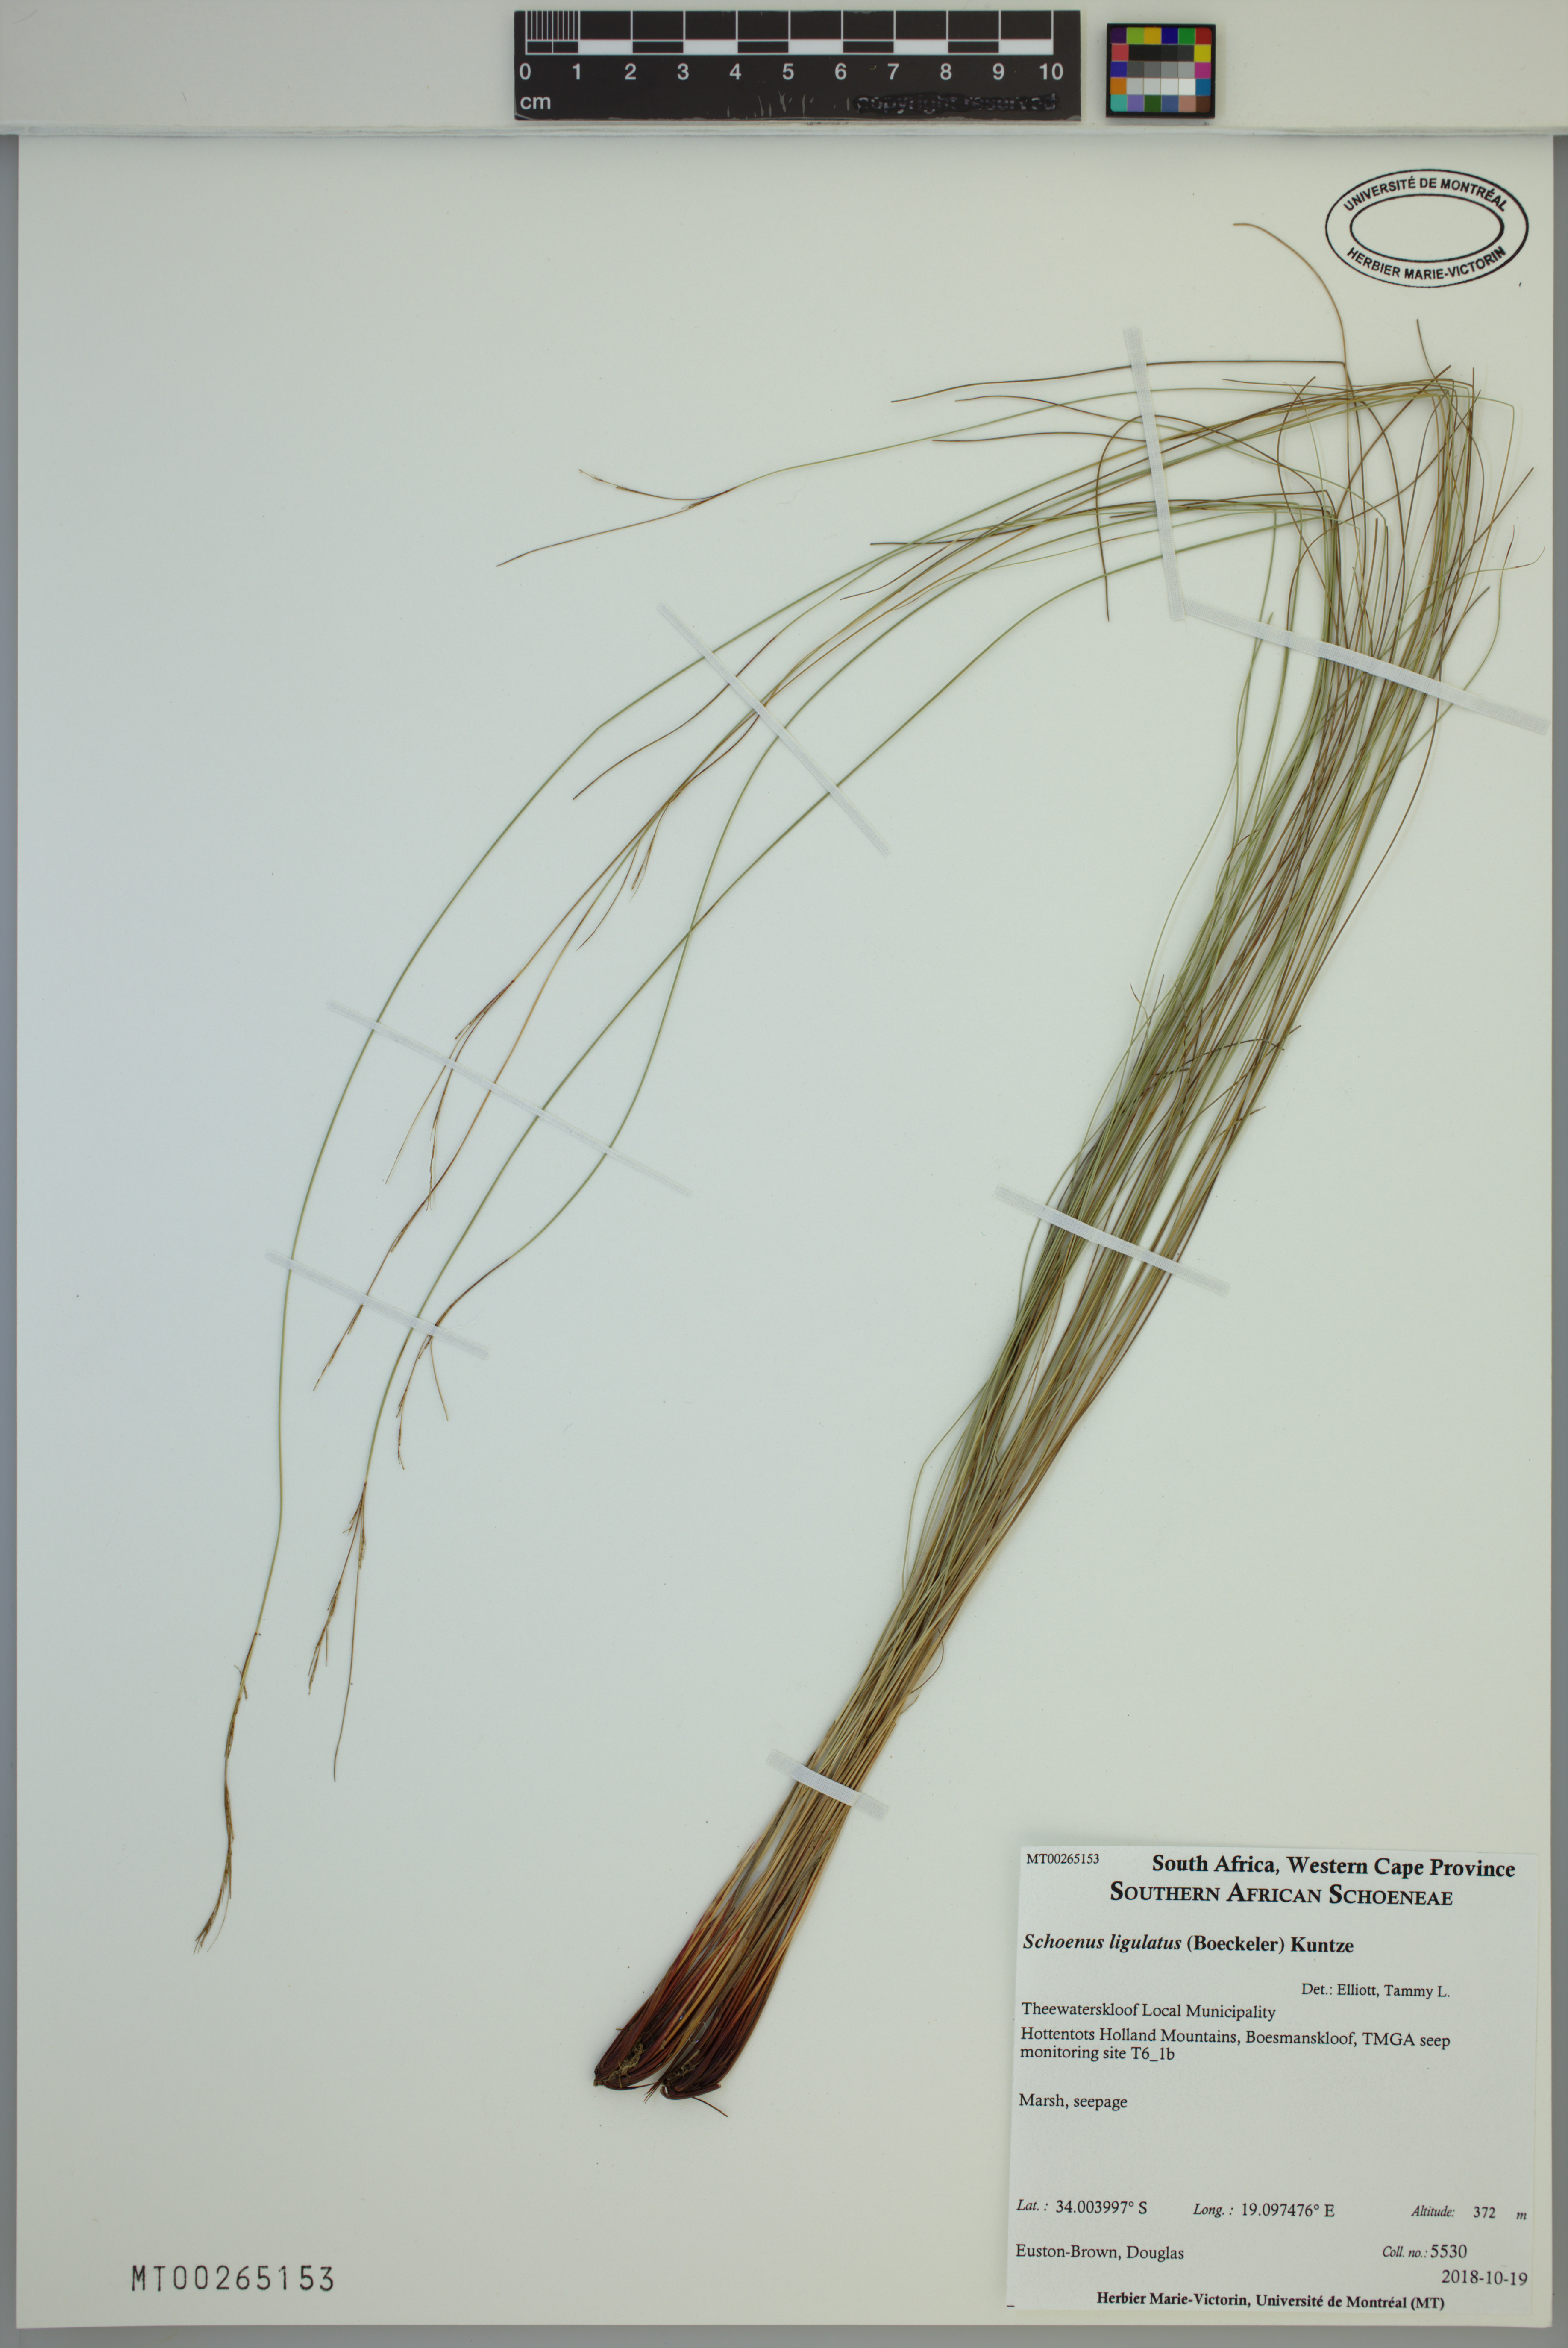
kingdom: Plantae
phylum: Tracheophyta
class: Liliopsida
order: Poales
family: Cyperaceae
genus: Schoenus
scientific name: Schoenus ligulatus
